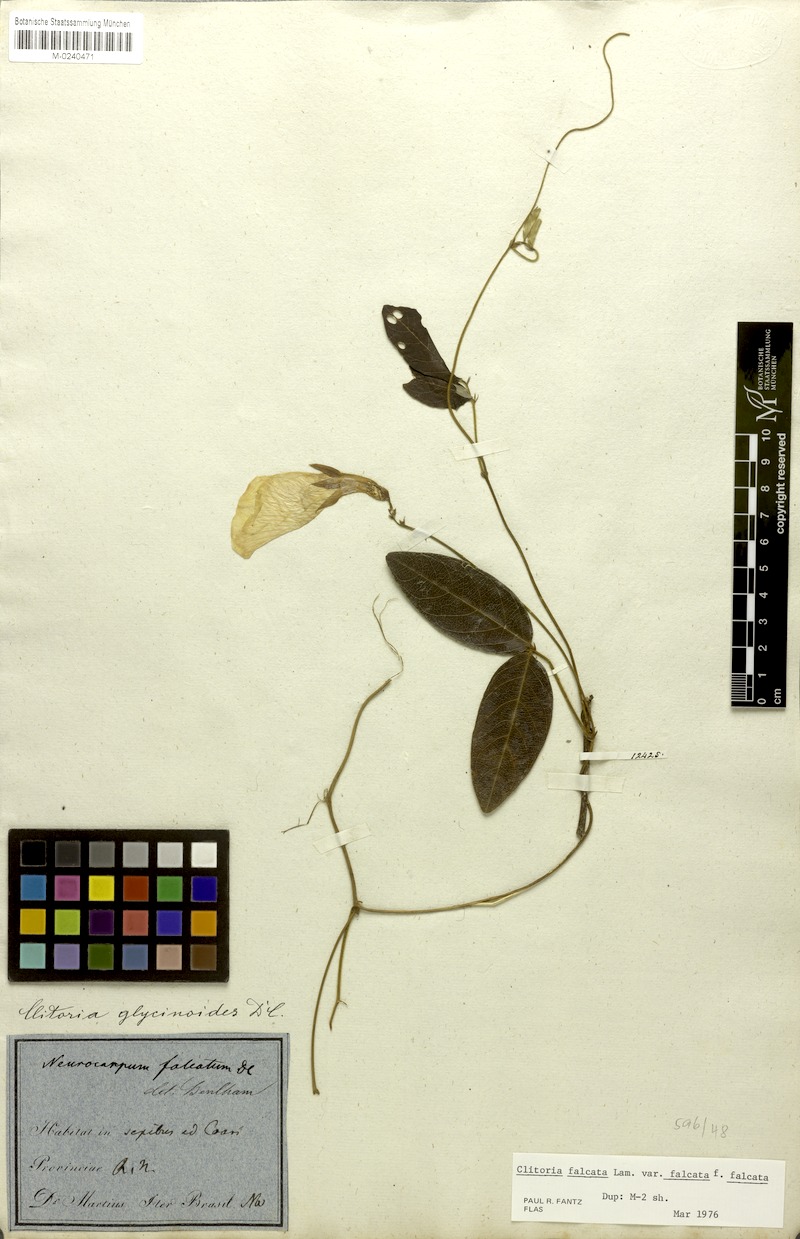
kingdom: Plantae
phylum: Tracheophyta
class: Magnoliopsida
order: Fabales
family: Fabaceae
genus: Clitoria
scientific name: Clitoria falcata
